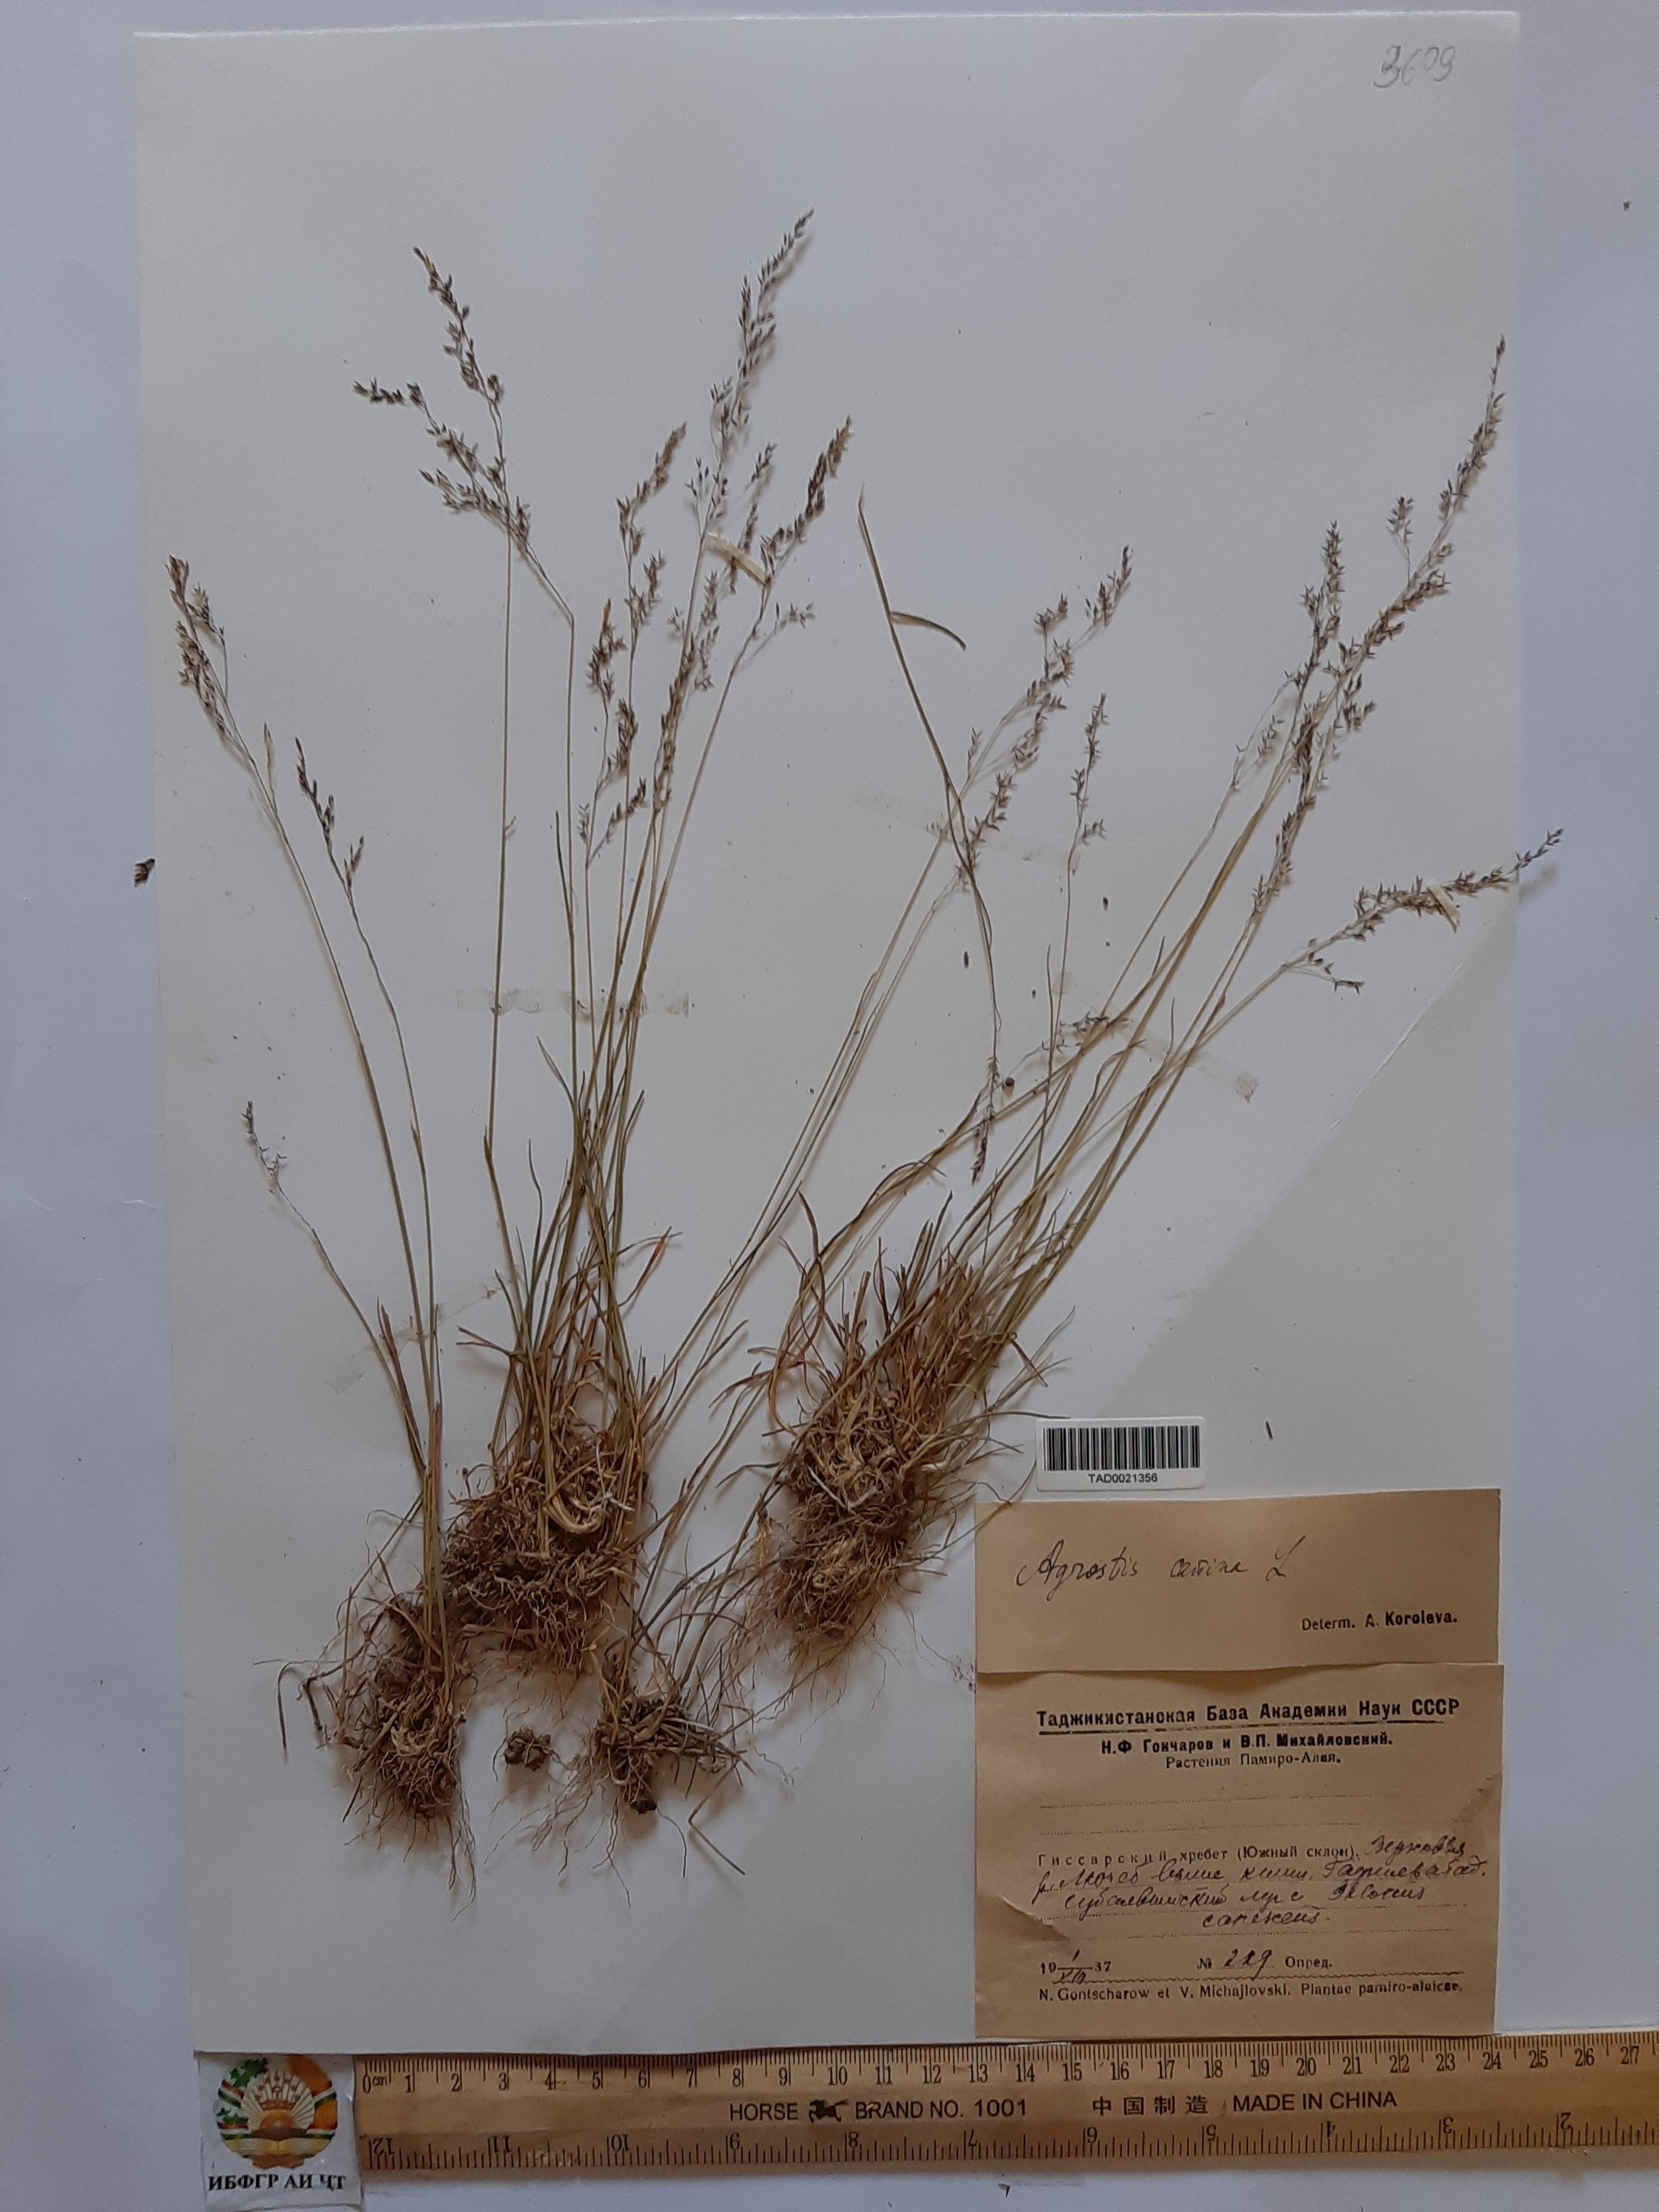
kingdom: Plantae
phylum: Tracheophyta
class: Liliopsida
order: Poales
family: Poaceae
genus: Agrostis
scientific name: Agrostis canina
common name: Velvet bent
